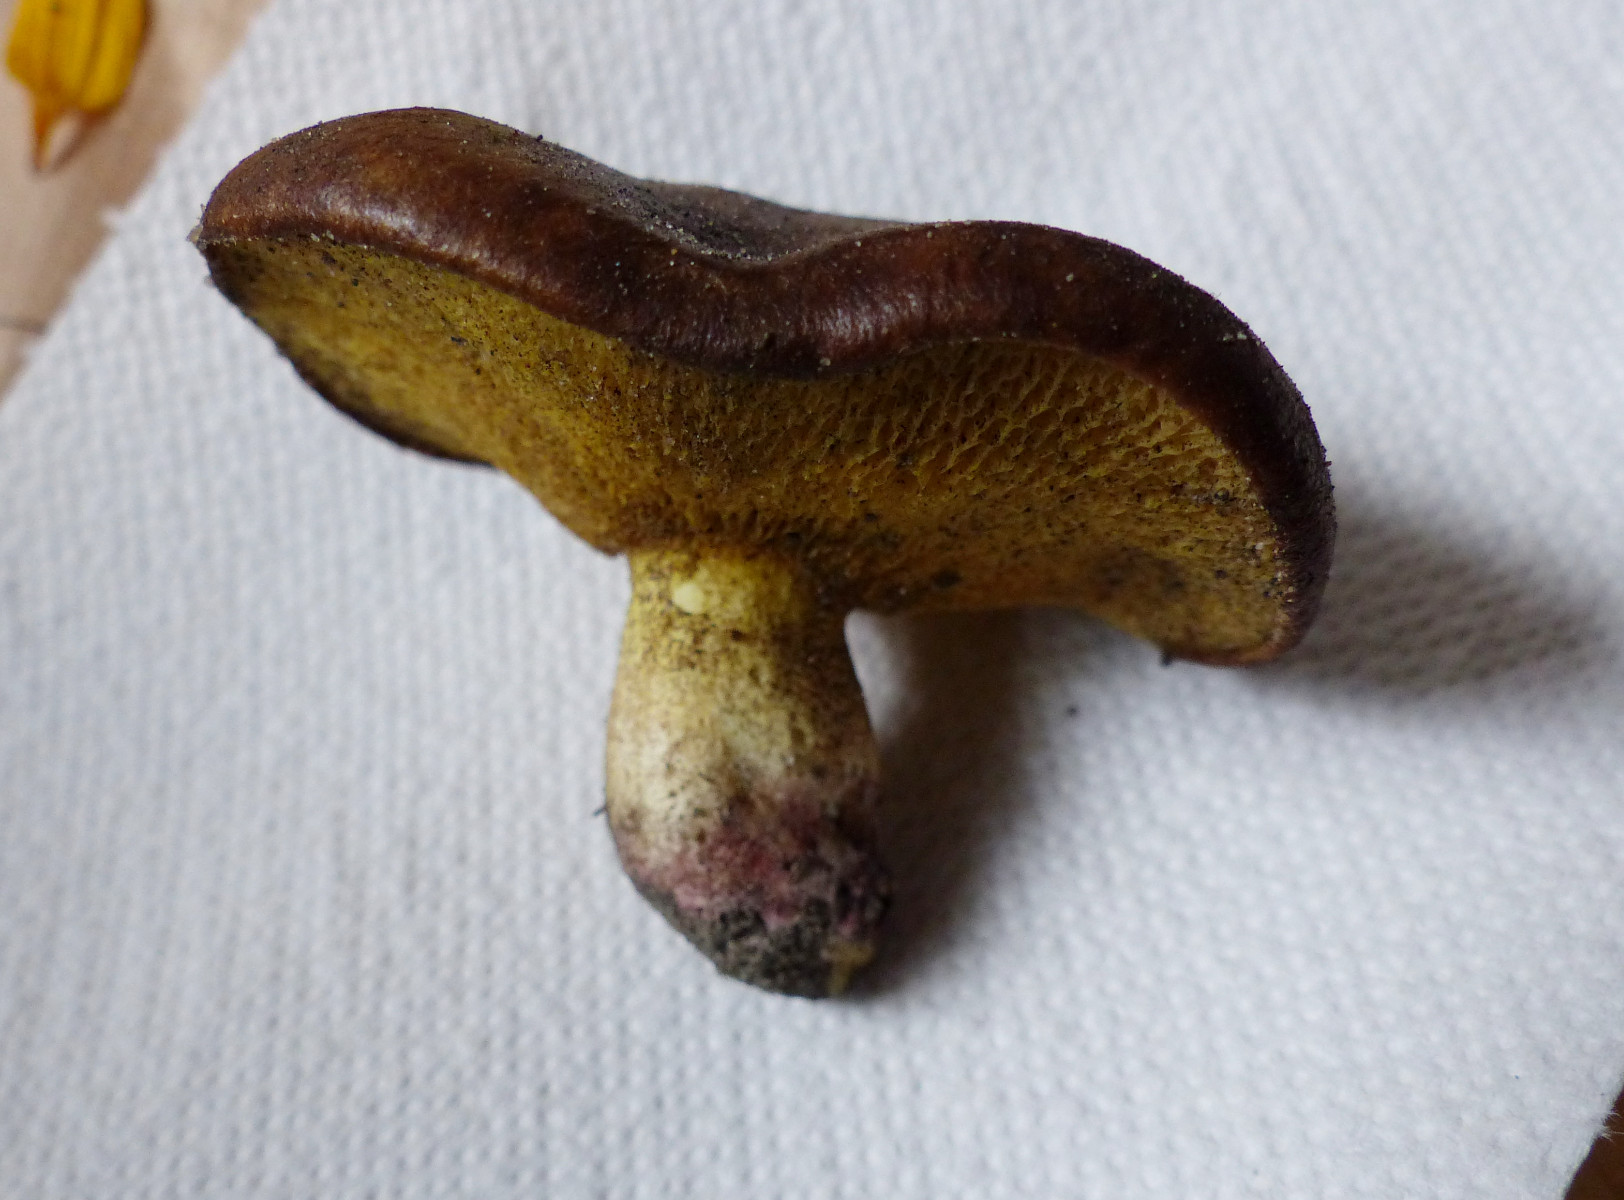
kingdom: Fungi
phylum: Basidiomycota
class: Agaricomycetes
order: Boletales
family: Suillaceae
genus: Suillus
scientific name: Suillus collinitus
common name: rosafodet slimrørhat
